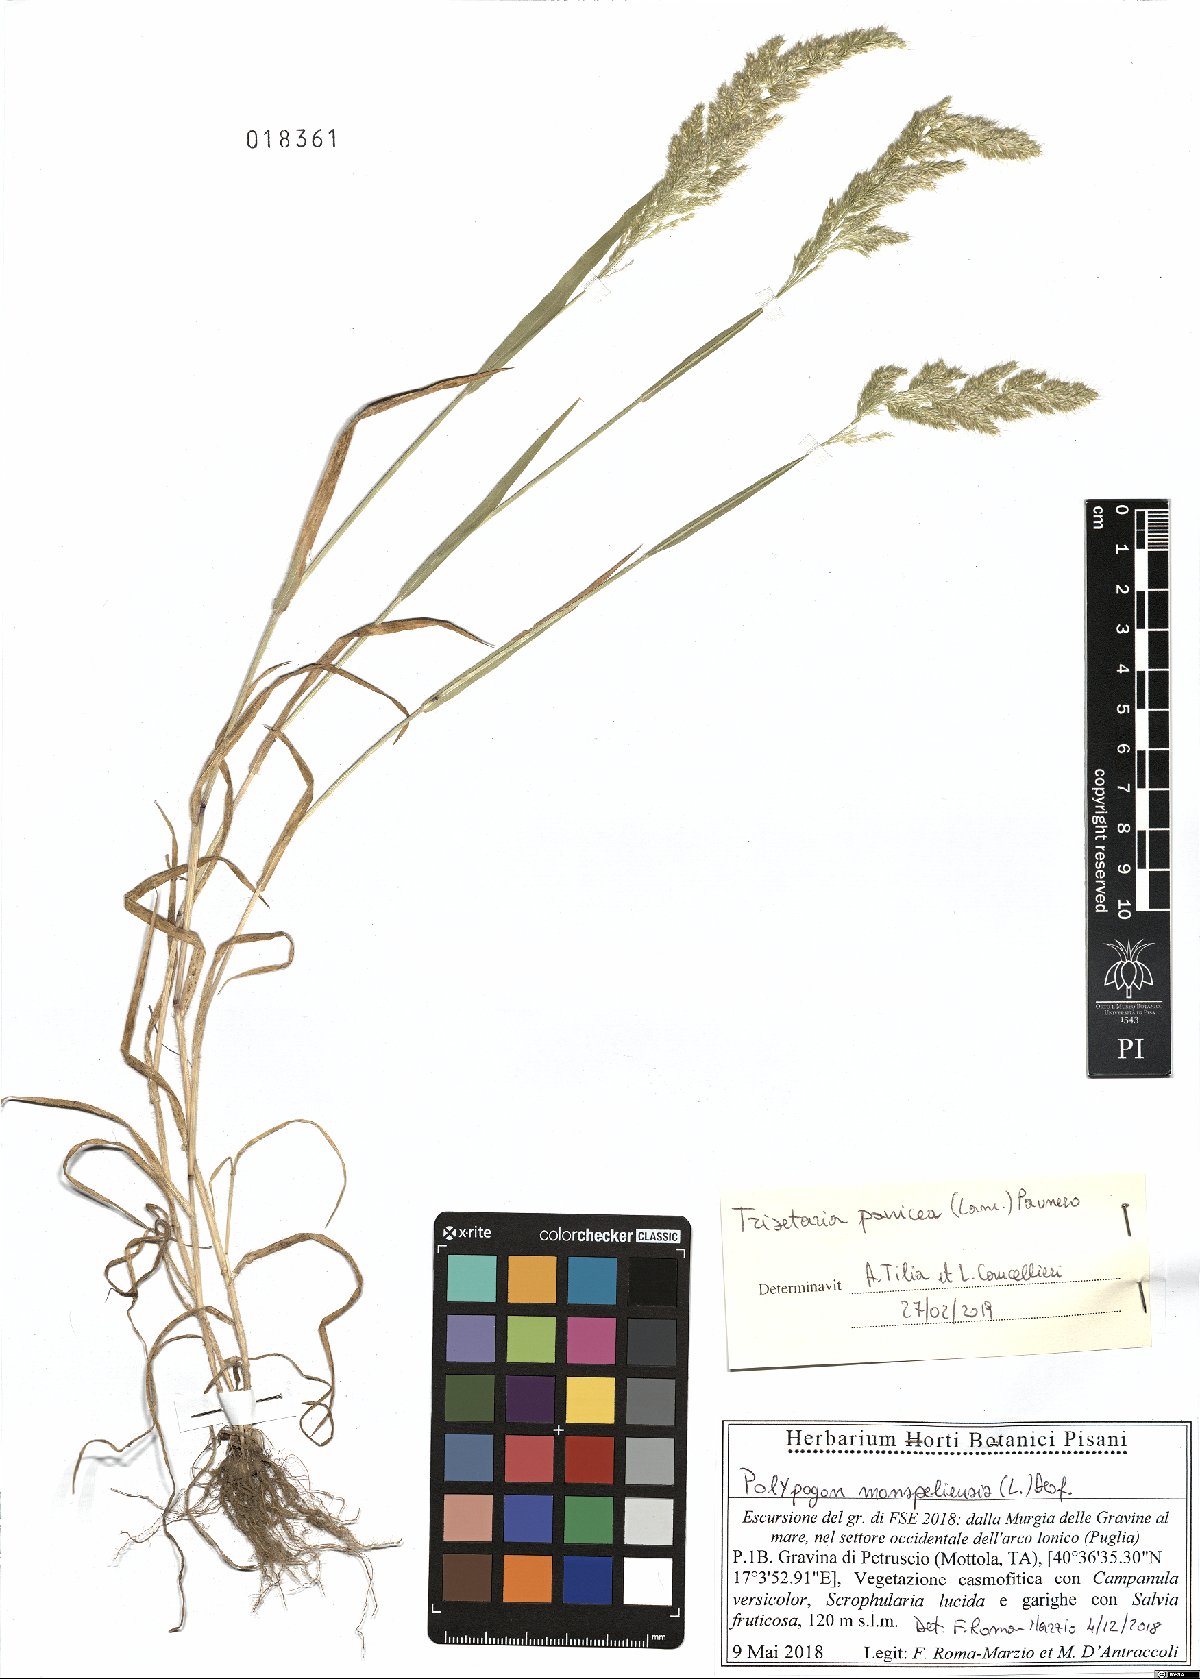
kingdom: Plantae
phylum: Tracheophyta
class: Liliopsida
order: Poales
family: Poaceae
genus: Trisetaria
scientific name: Trisetaria panicea
